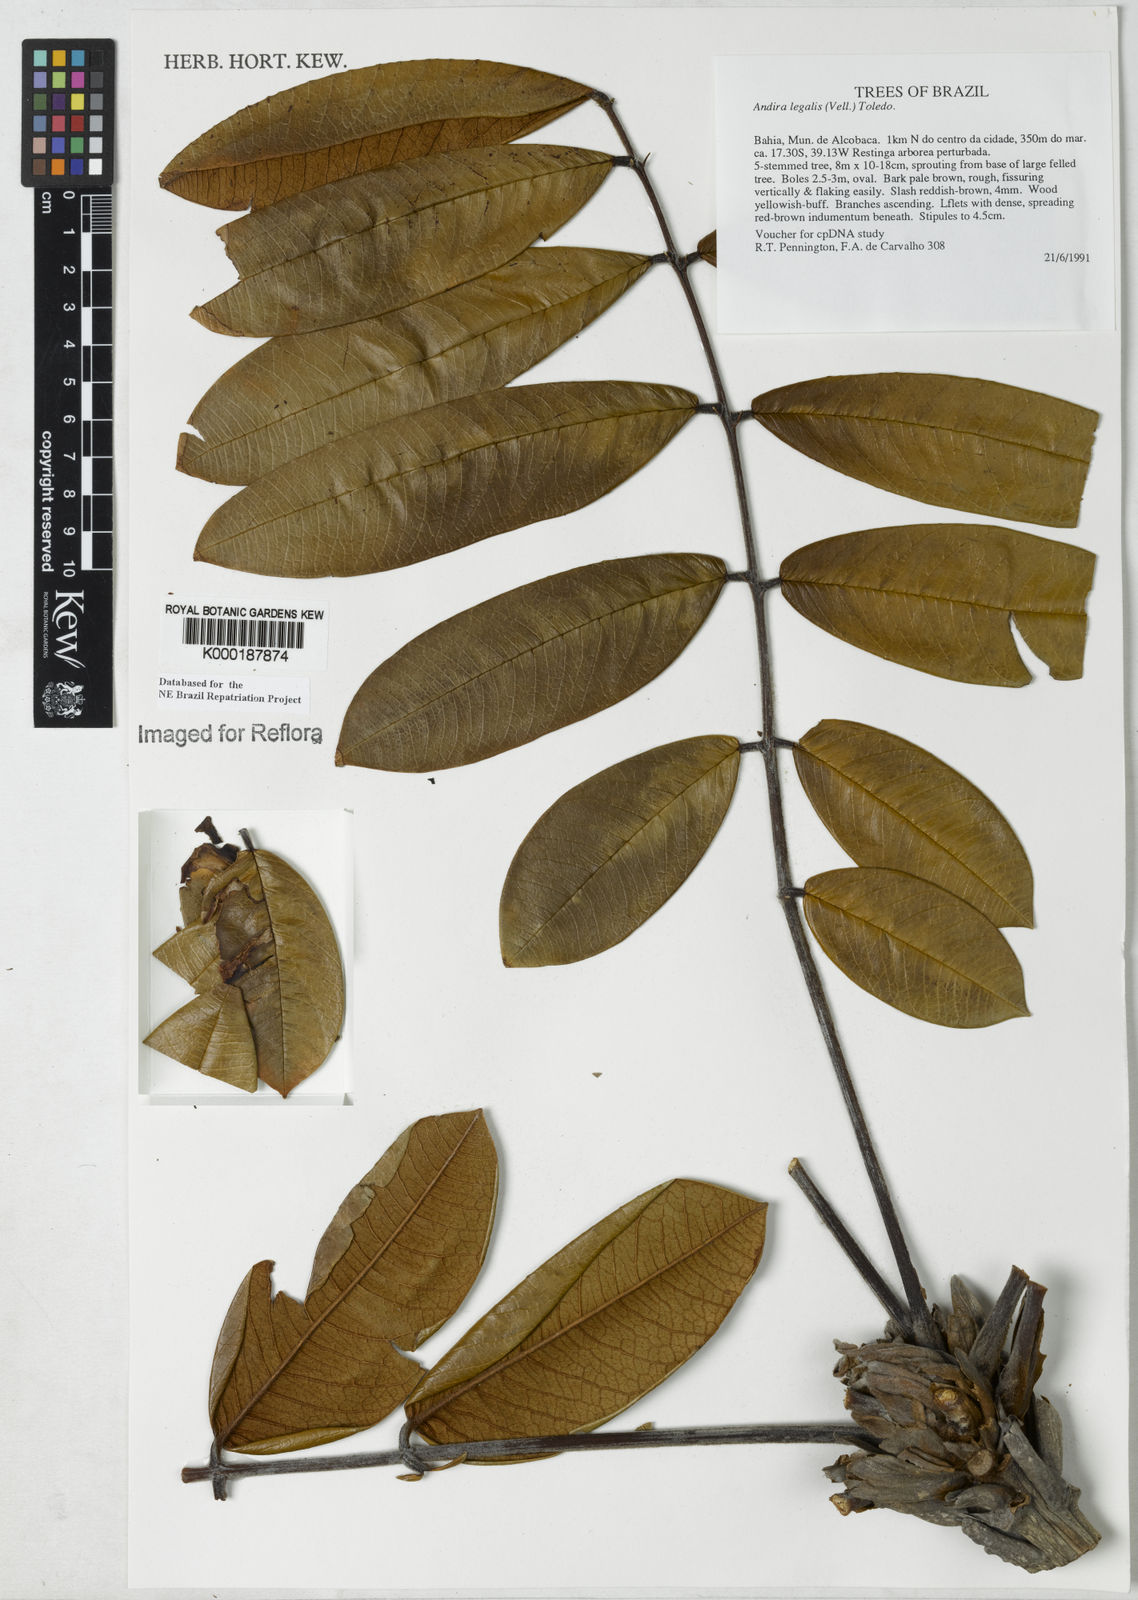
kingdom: Plantae
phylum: Tracheophyta
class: Magnoliopsida
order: Fabales
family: Fabaceae
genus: Andira
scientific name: Andira legalis
